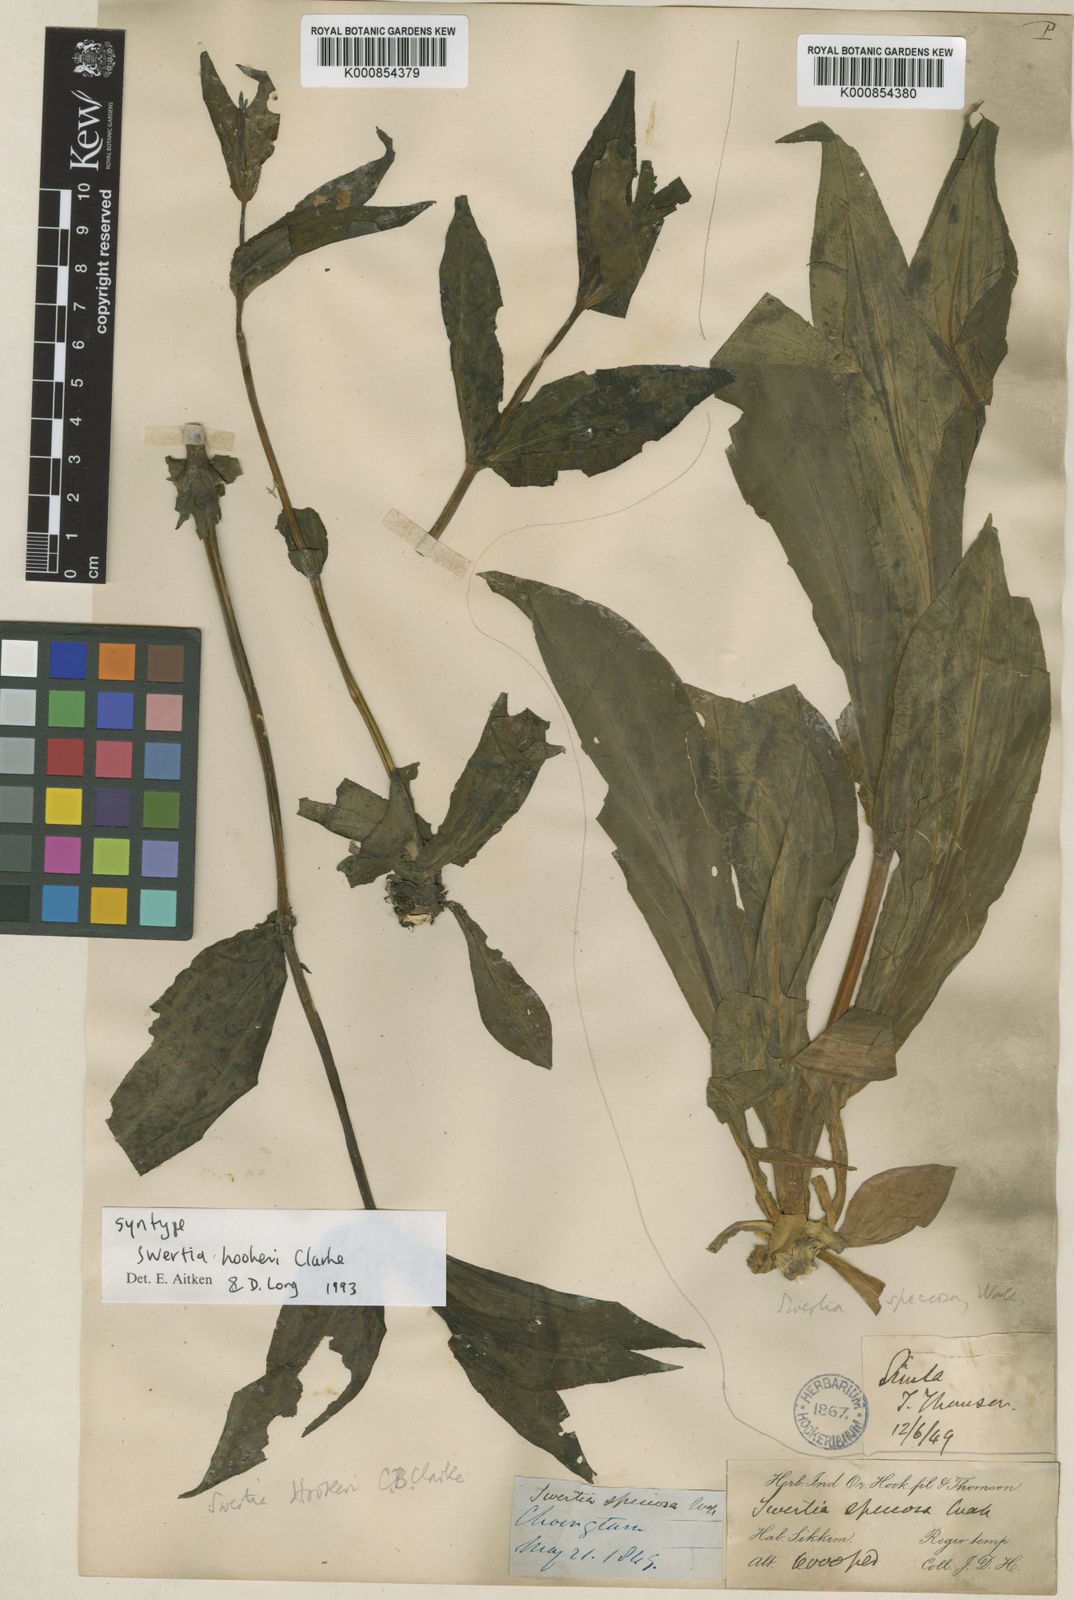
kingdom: Plantae
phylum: Tracheophyta
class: Magnoliopsida
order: Gentianales
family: Gentianaceae
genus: Swertia
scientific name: Swertia hookeri
